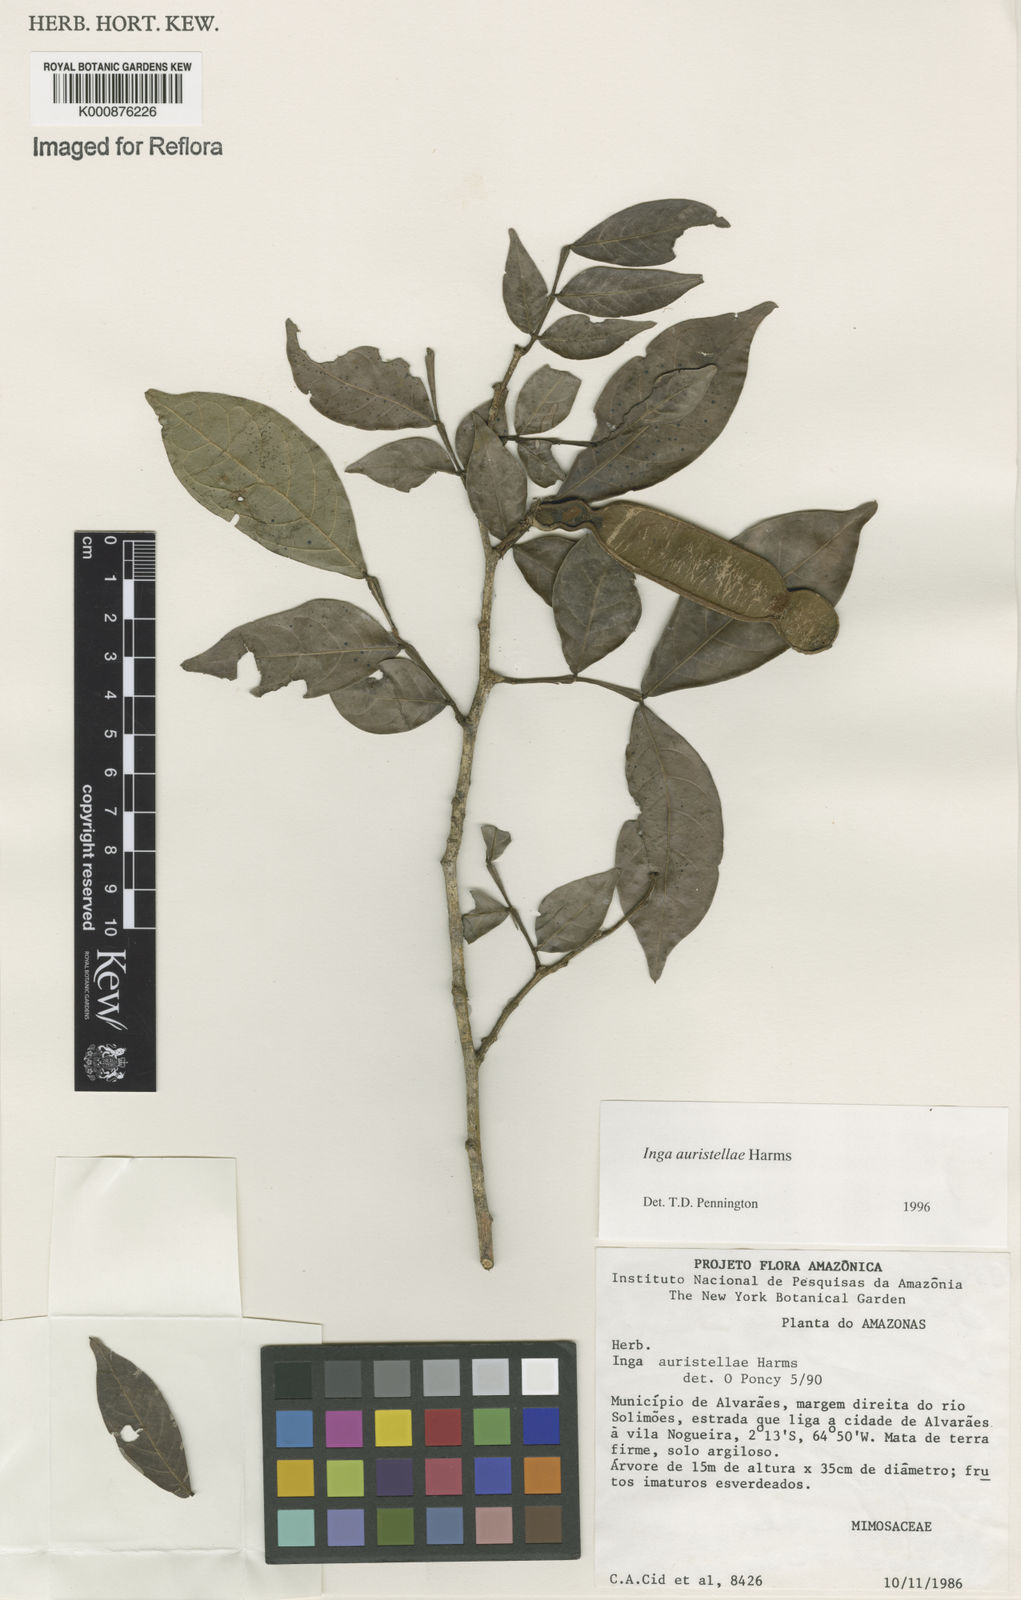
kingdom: Plantae
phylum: Tracheophyta
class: Magnoliopsida
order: Fabales
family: Fabaceae
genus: Inga
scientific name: Inga auristellae
